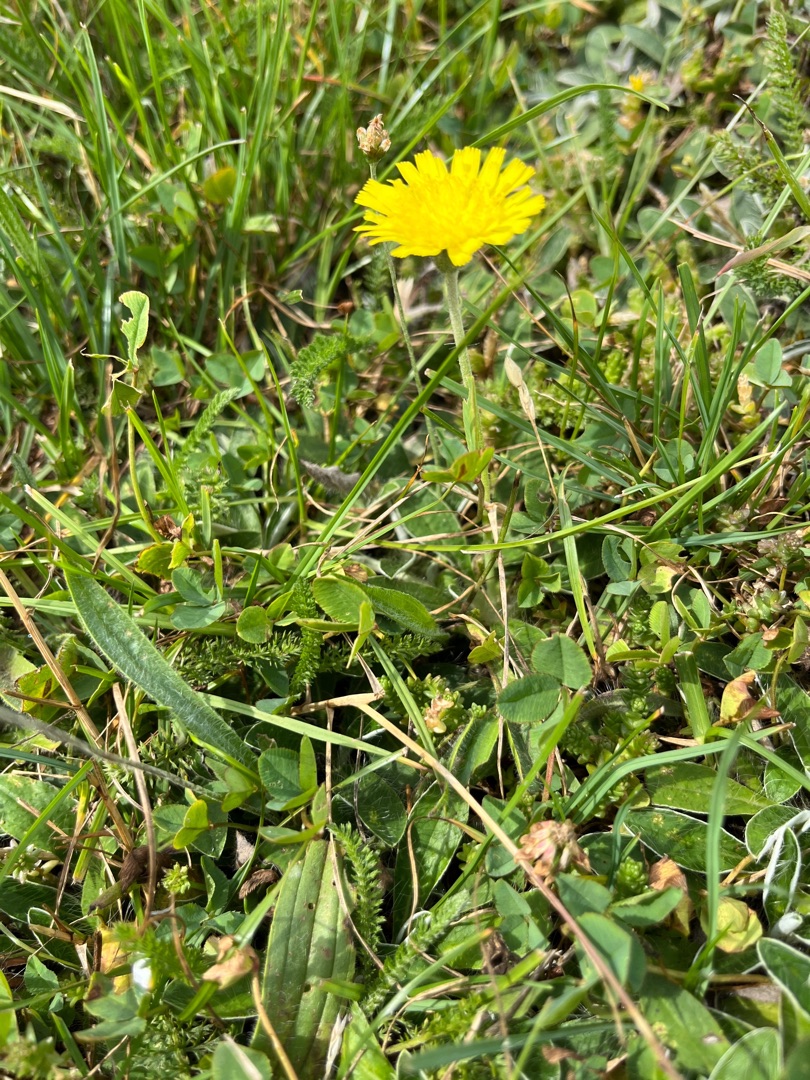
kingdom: Plantae
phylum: Tracheophyta
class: Magnoliopsida
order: Asterales
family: Asteraceae
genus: Pilosella
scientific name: Pilosella officinarum
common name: Håret høgeurt
